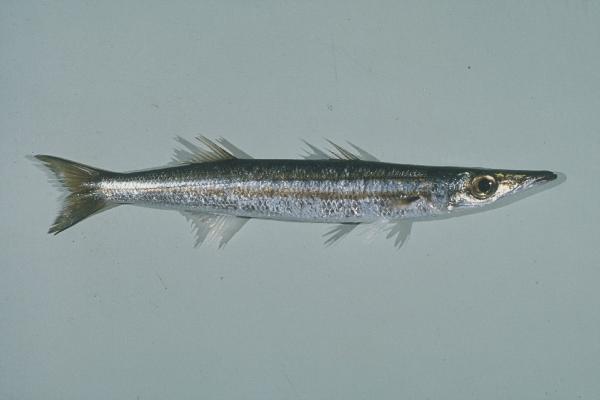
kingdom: Animalia
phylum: Chordata
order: Perciformes
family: Sphyraenidae
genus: Sphyraena
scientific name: Sphyraena flavicauda
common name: Yellowtail barracuda
